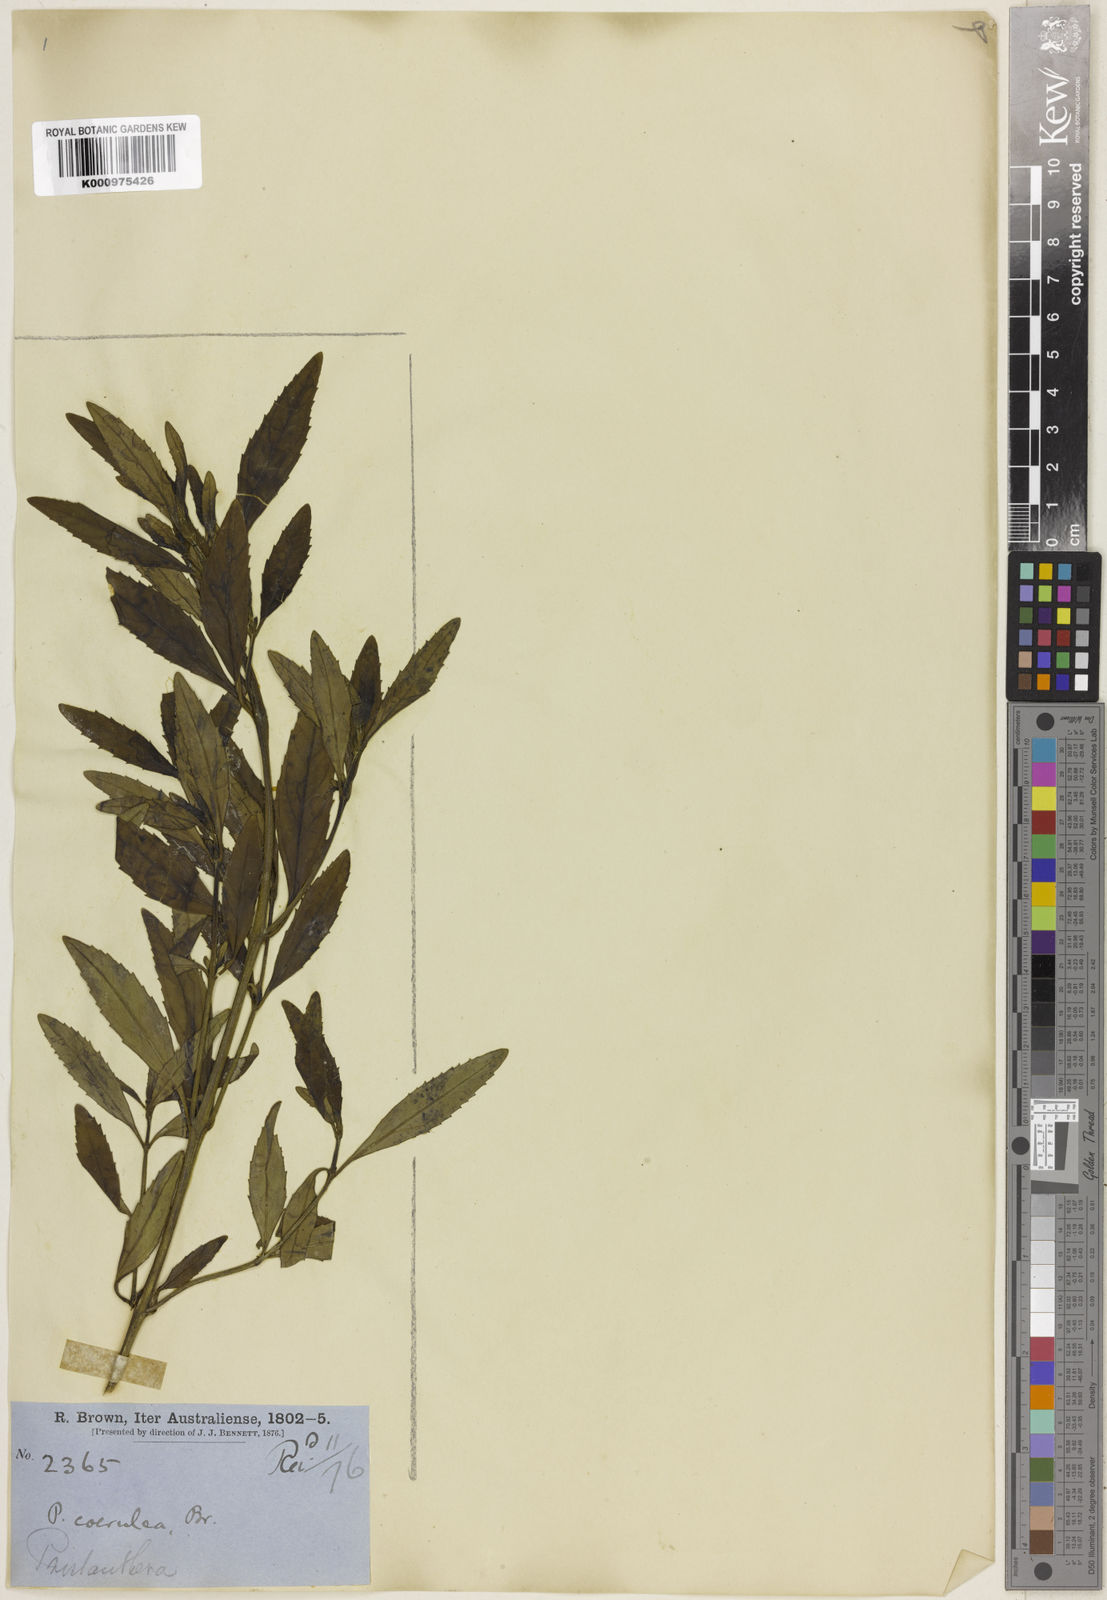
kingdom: Plantae
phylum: Tracheophyta
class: Magnoliopsida
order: Lamiales
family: Lamiaceae
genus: Prostanthera
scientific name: Prostanthera caerulea
